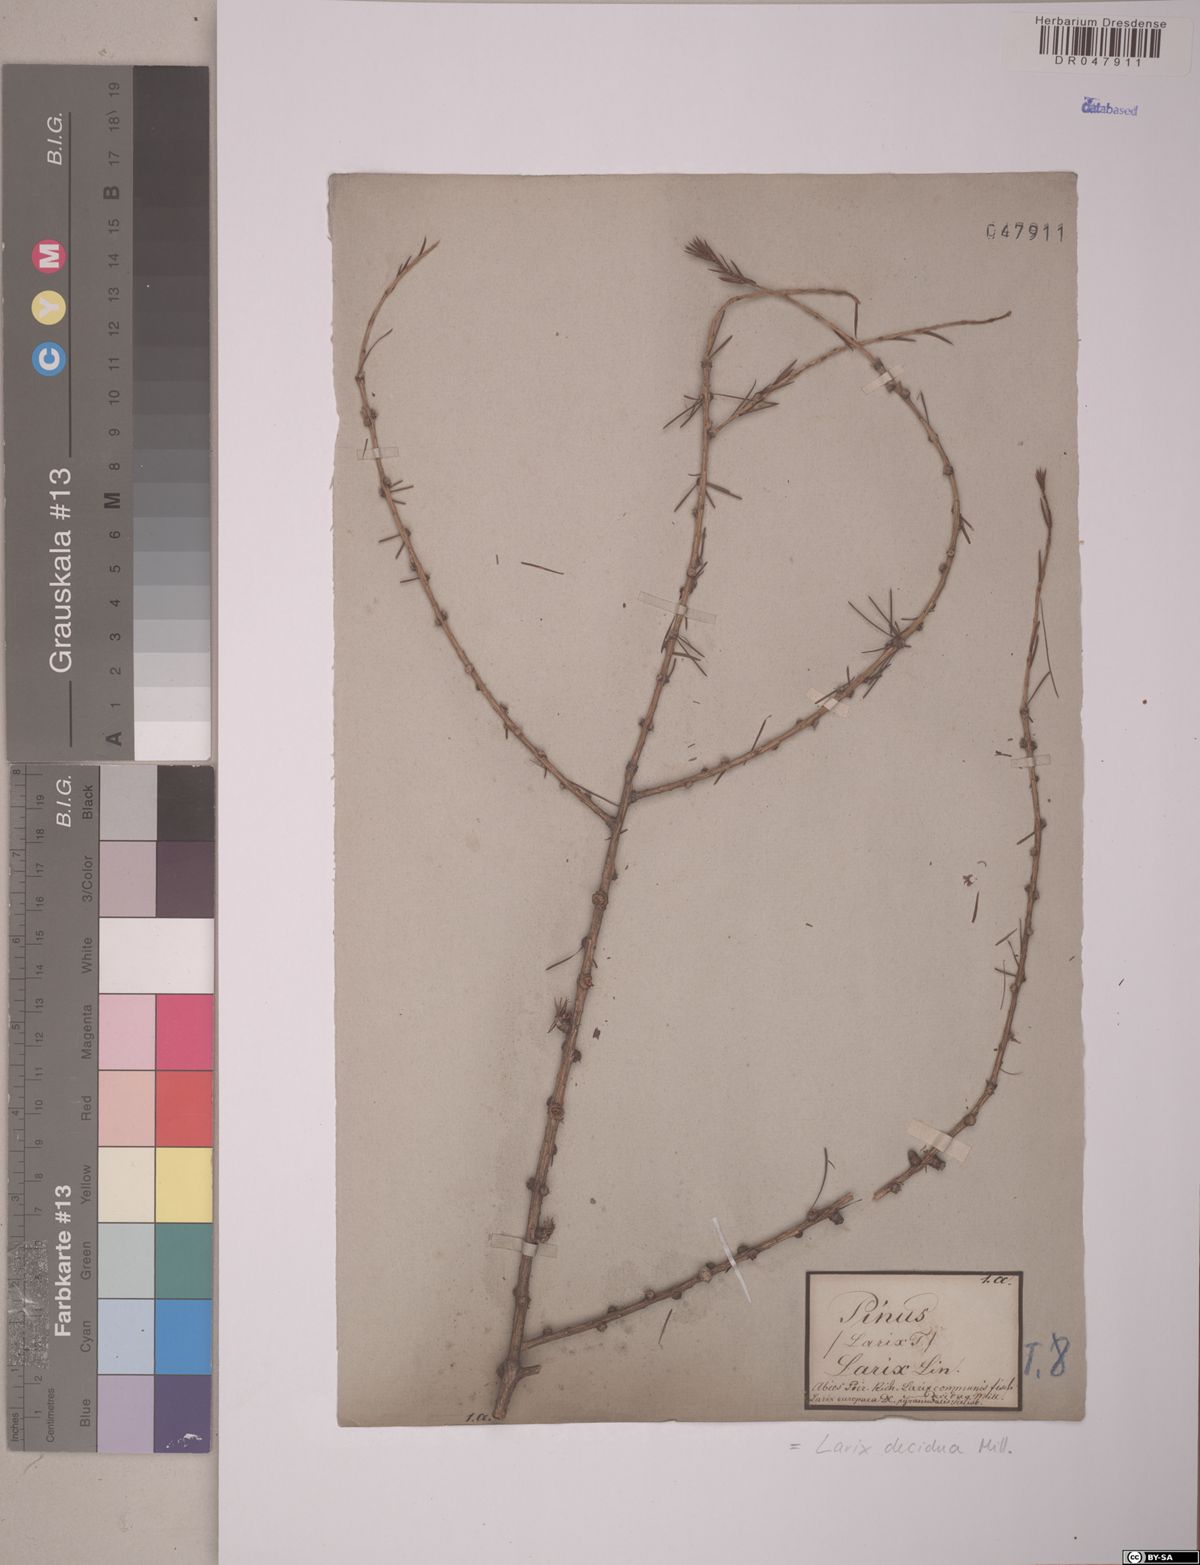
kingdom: Plantae
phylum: Tracheophyta
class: Pinopsida
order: Pinales
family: Pinaceae
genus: Larix
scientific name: Larix decidua
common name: European larch
